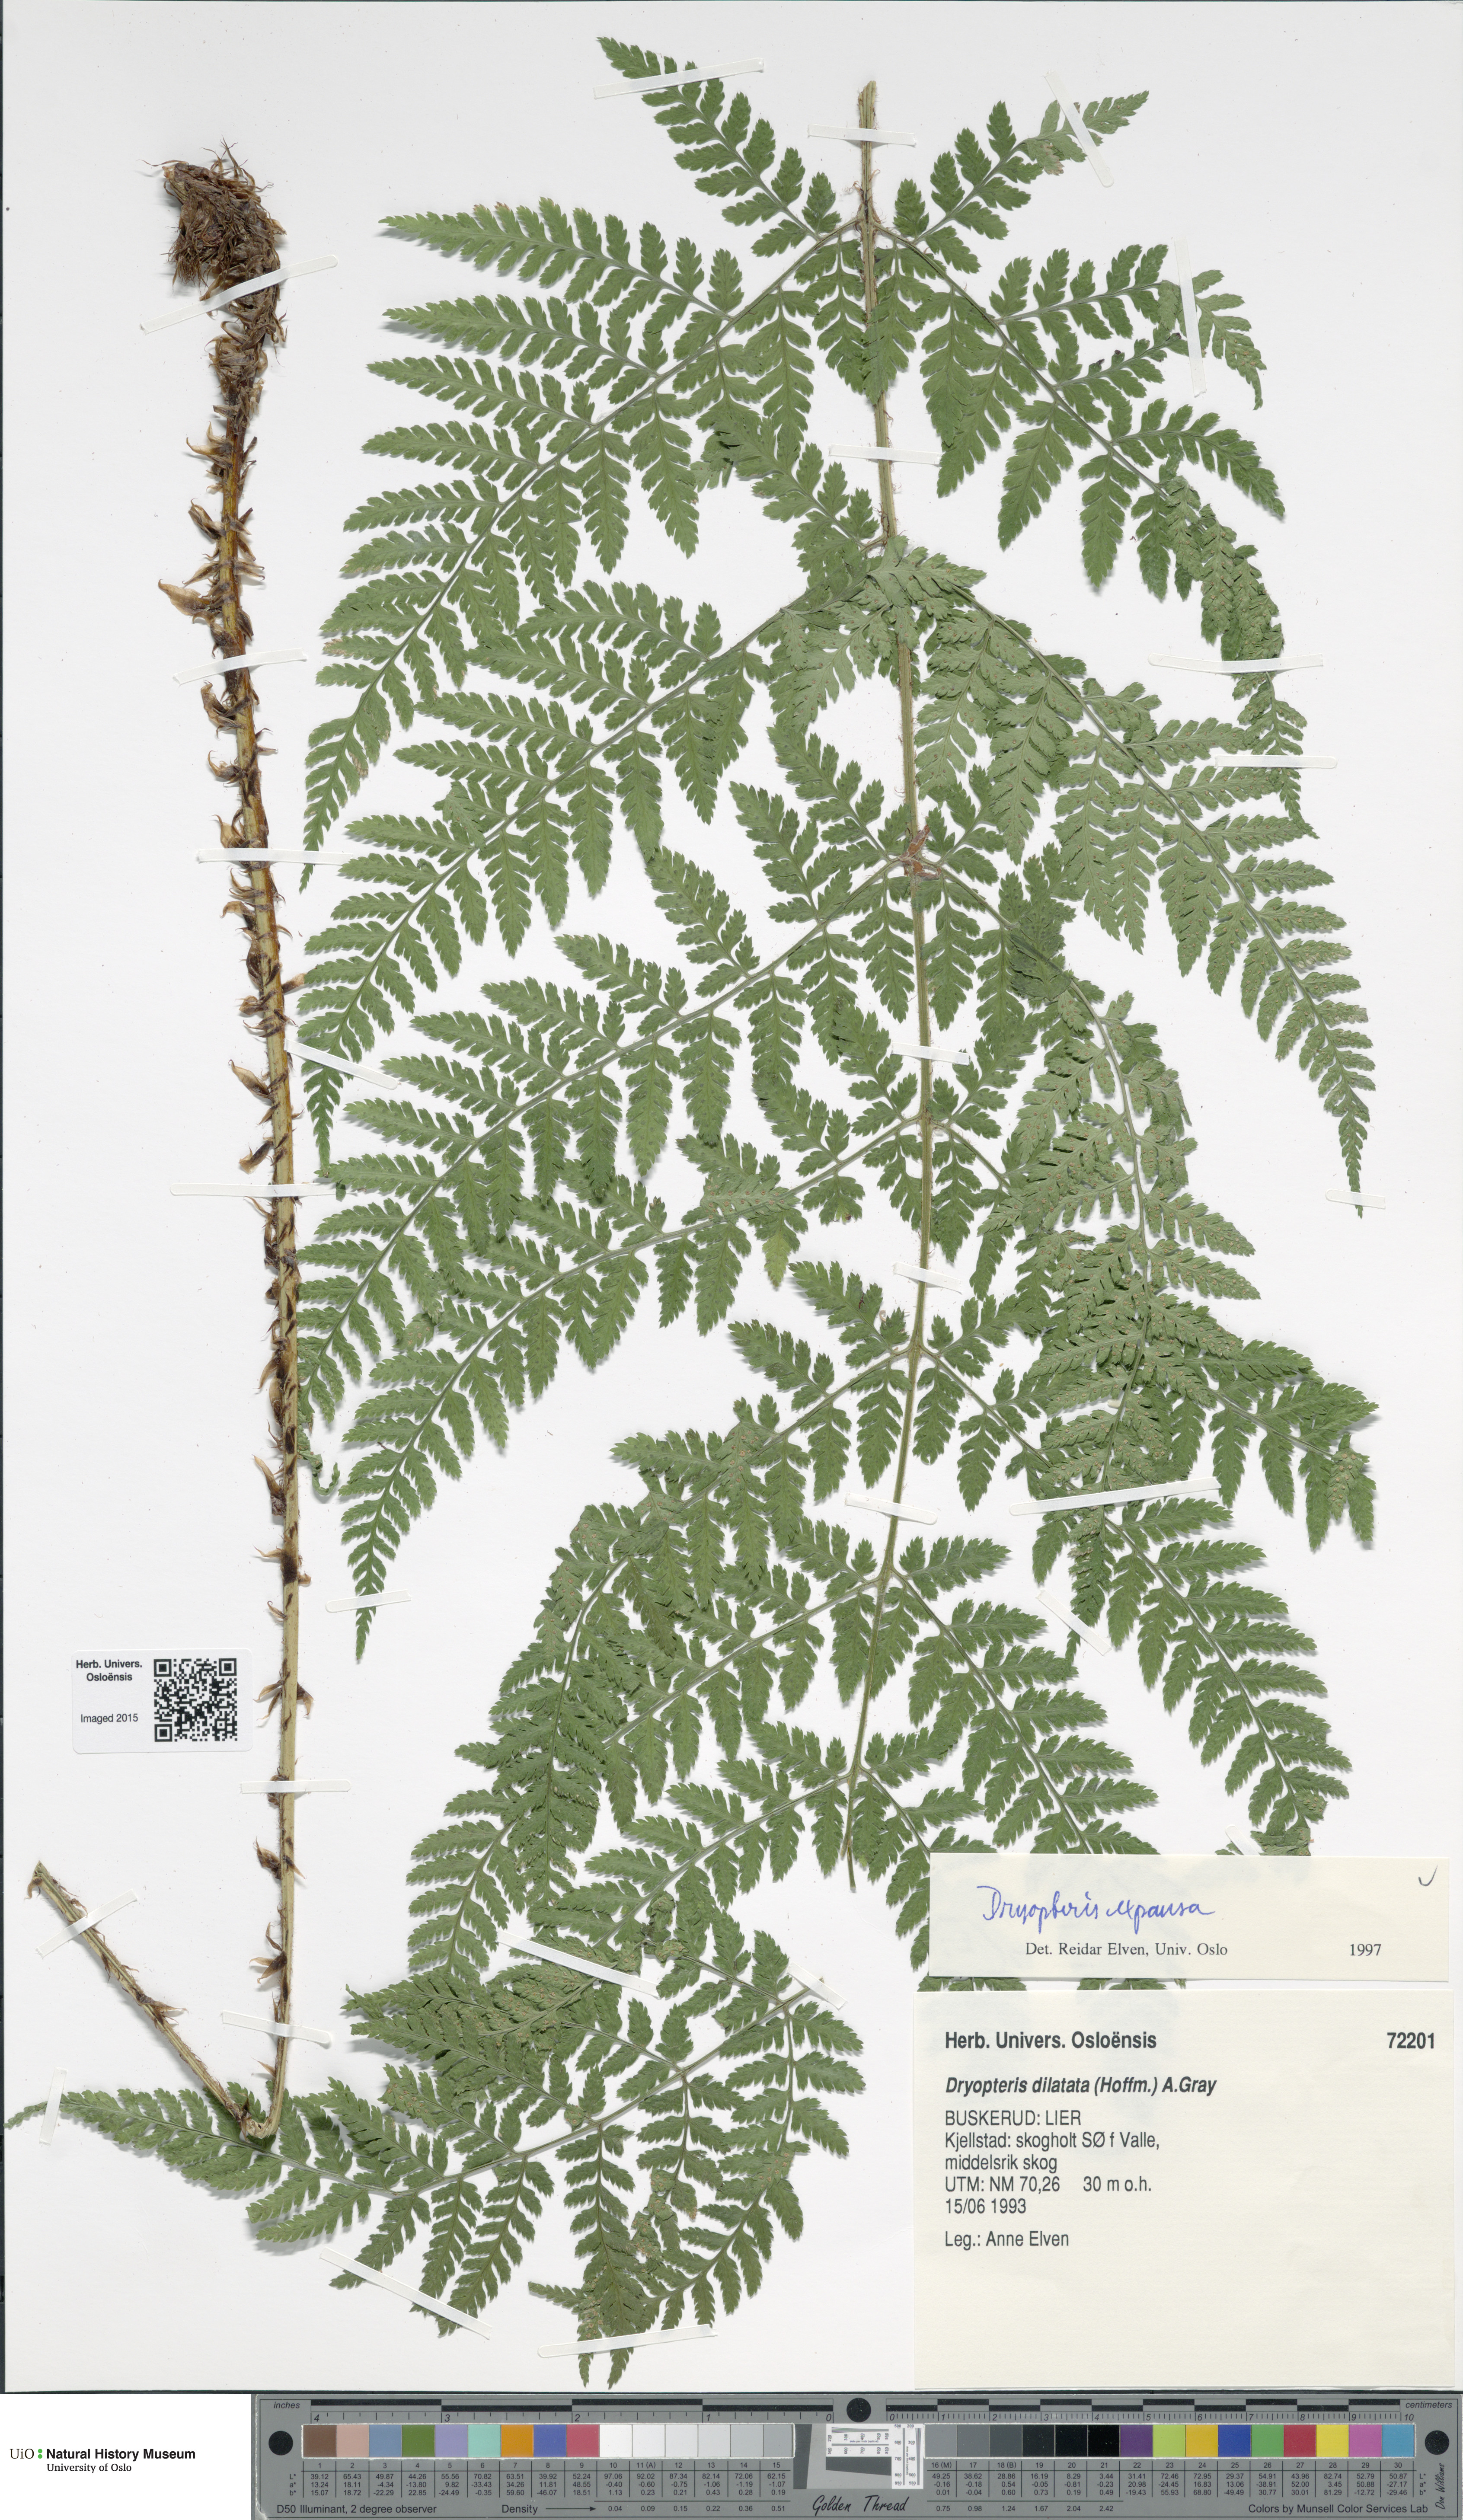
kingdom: Plantae
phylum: Tracheophyta
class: Polypodiopsida
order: Polypodiales
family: Dryopteridaceae
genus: Dryopteris
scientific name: Dryopteris expansa
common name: Northern buckler fern
